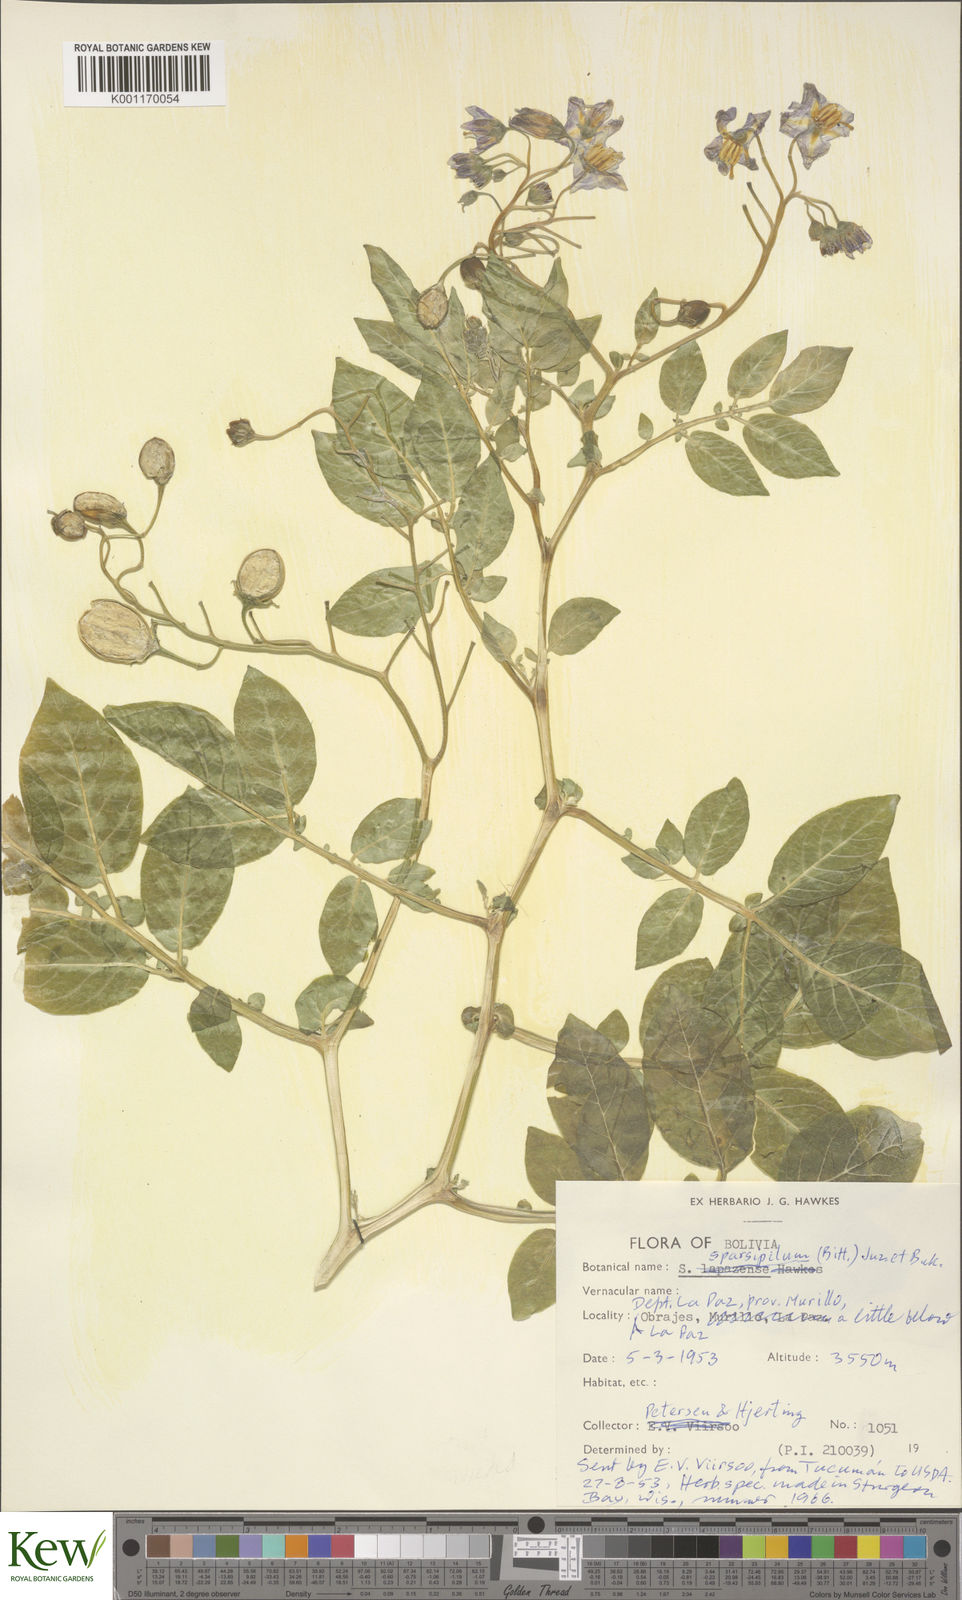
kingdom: Plantae
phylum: Tracheophyta
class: Magnoliopsida
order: Solanales
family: Solanaceae
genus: Solanum
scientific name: Solanum brevicaule
